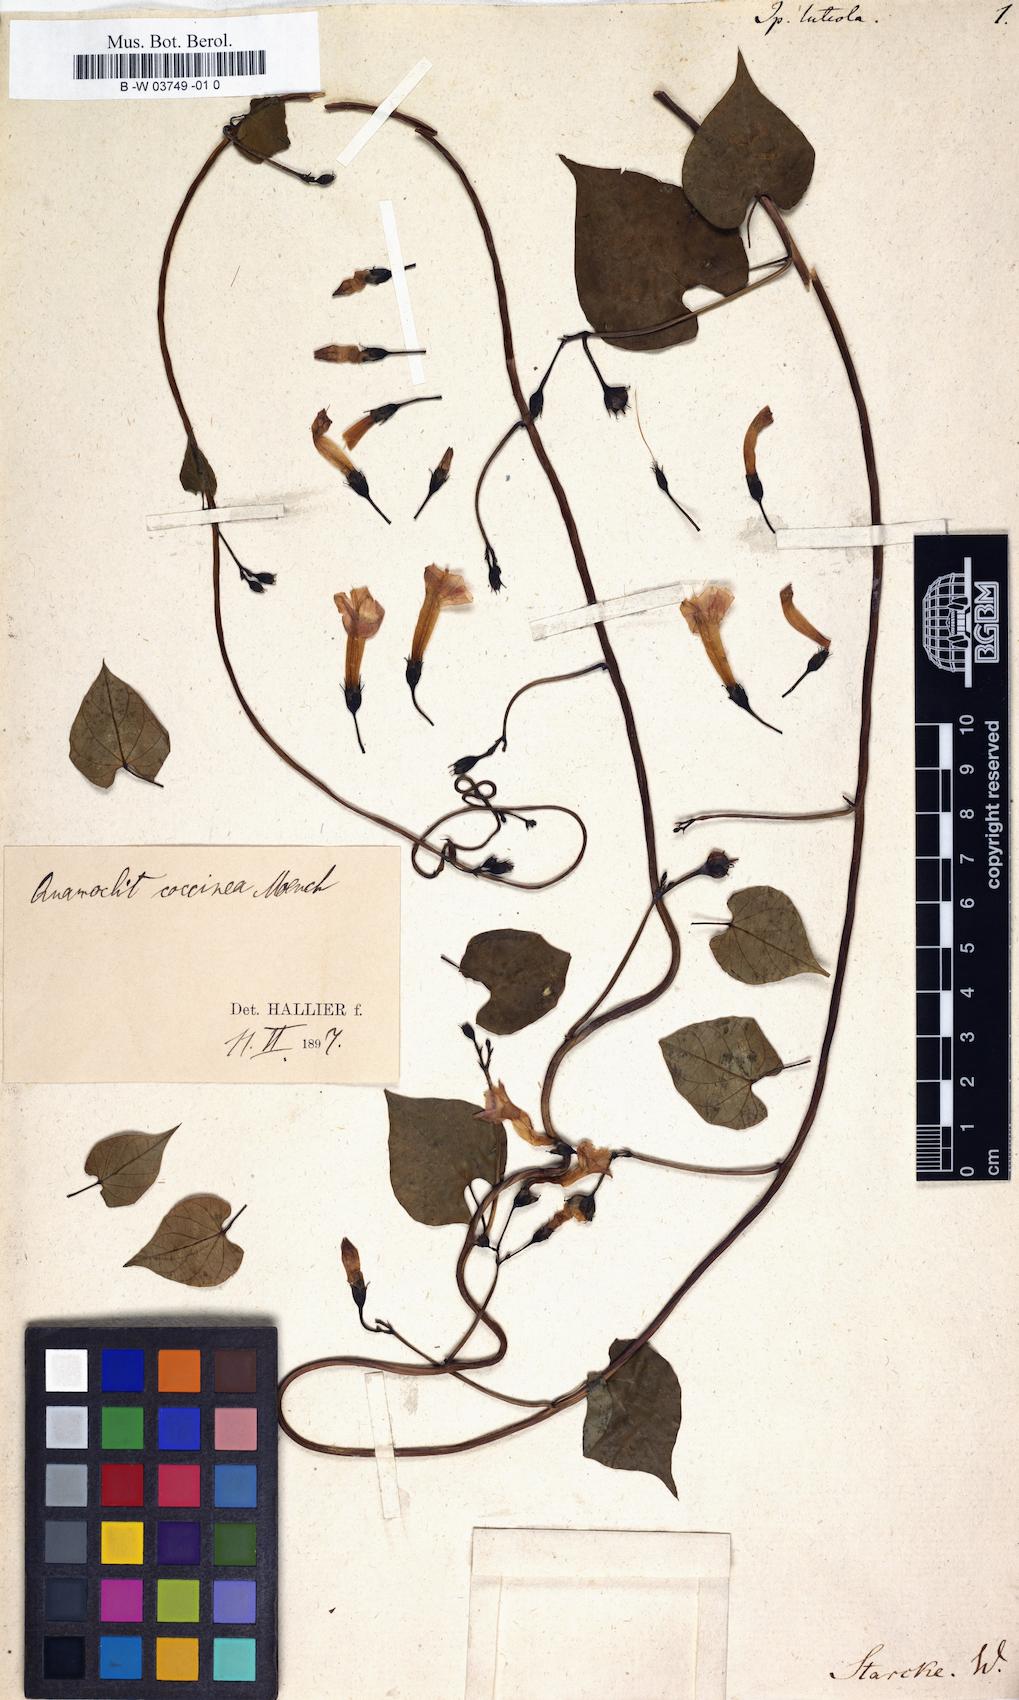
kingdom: Plantae
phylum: Tracheophyta
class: Magnoliopsida
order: Solanales
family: Convolvulaceae
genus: Ipomoea
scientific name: Ipomoea
